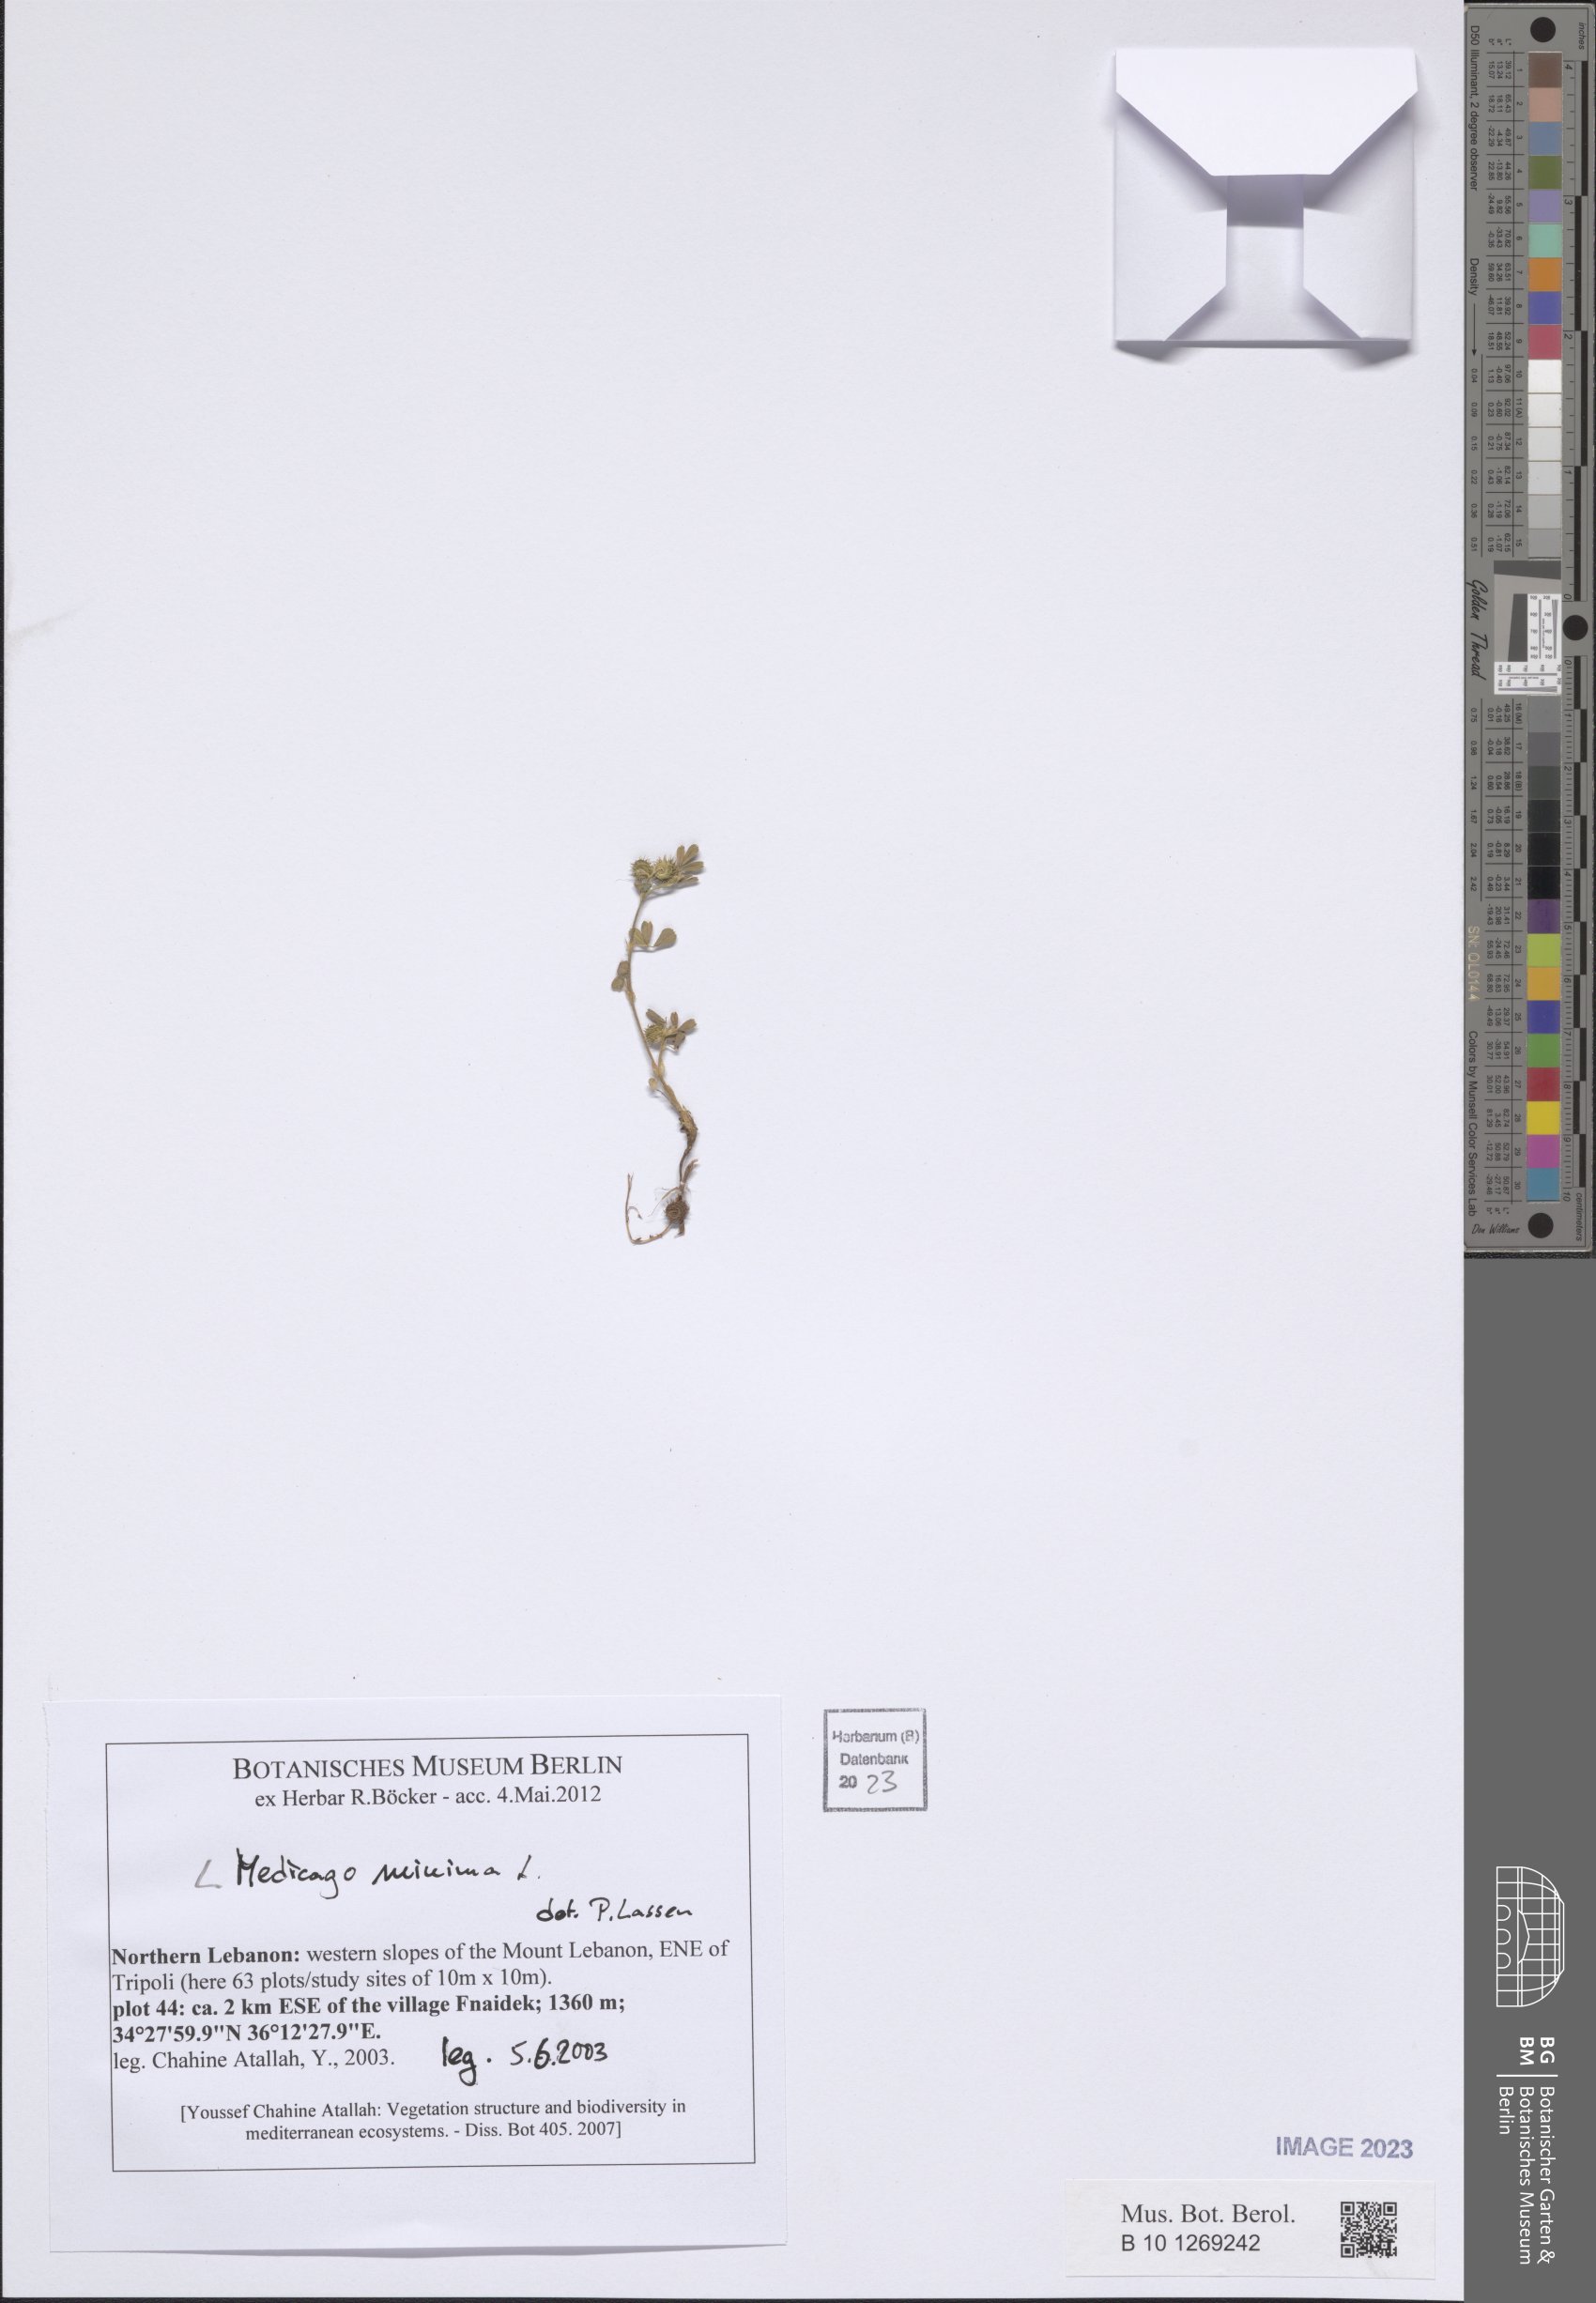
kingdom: Plantae
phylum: Tracheophyta
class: Magnoliopsida
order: Fabales
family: Fabaceae
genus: Medicago
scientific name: Medicago minima
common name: Little bur-clover
